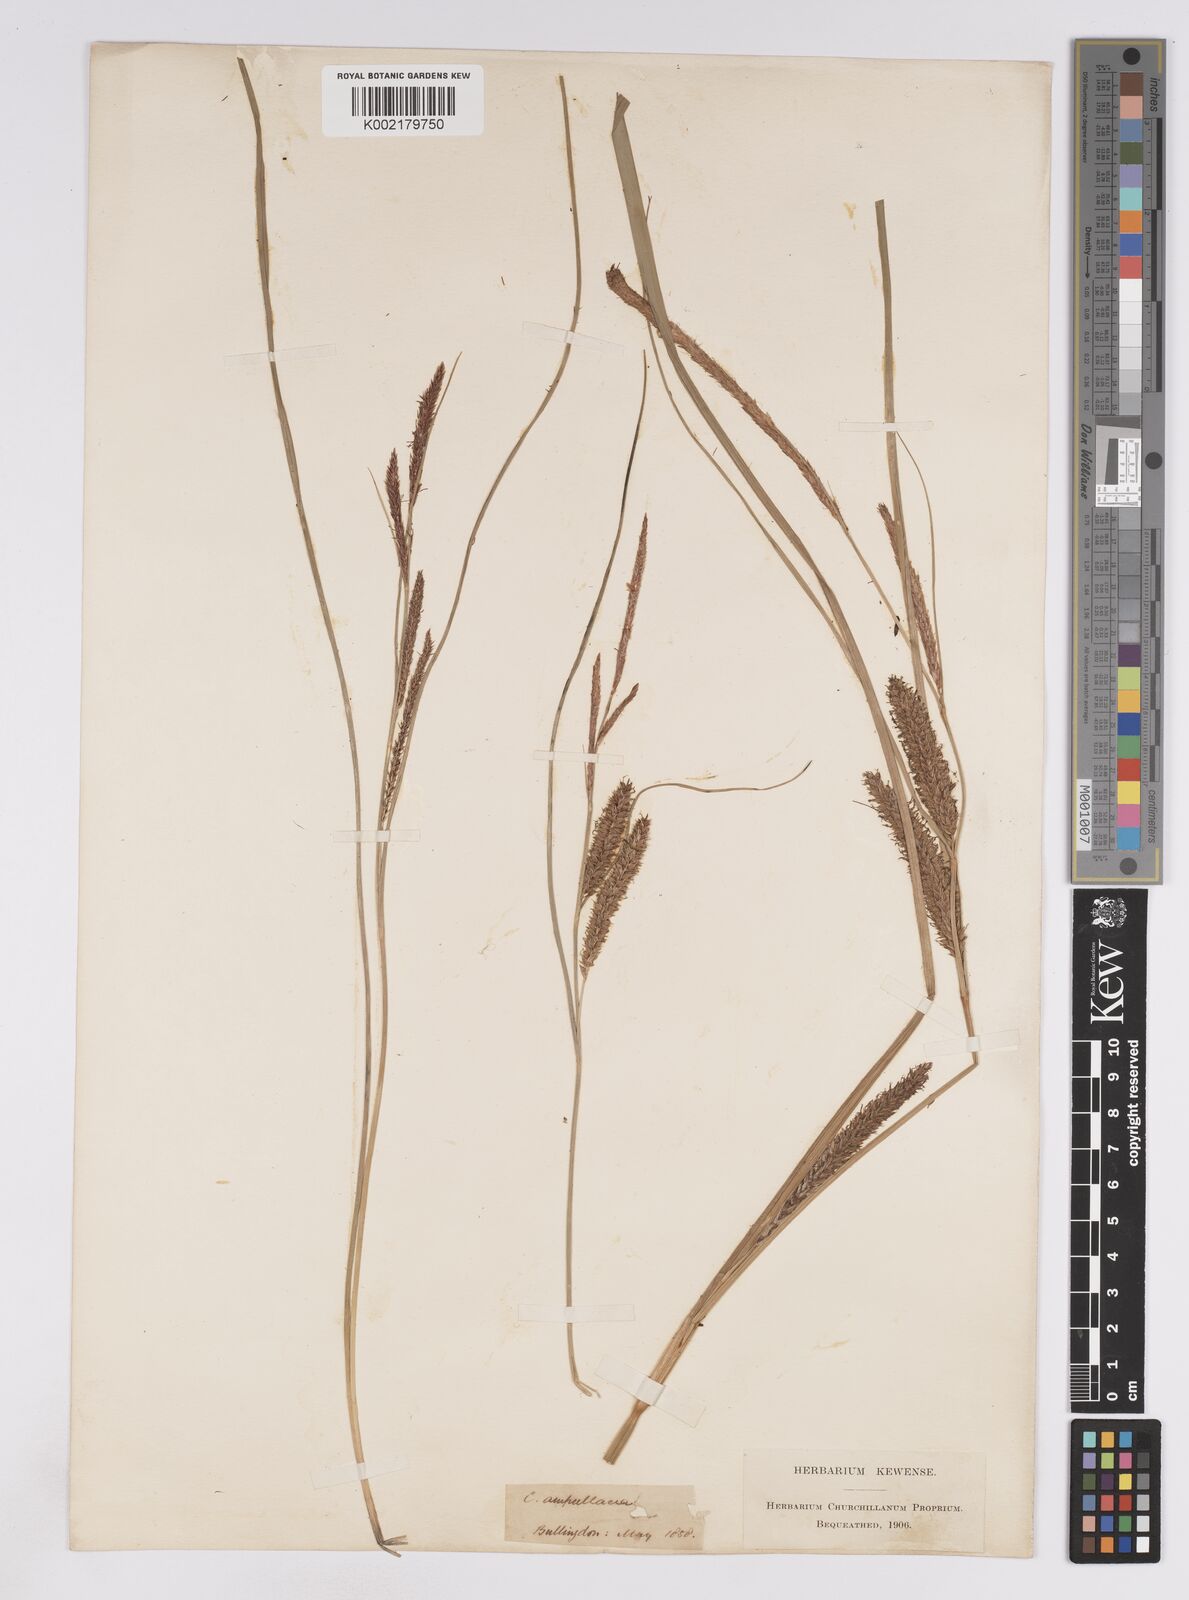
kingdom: Plantae
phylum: Tracheophyta
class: Liliopsida
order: Poales
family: Cyperaceae
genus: Carex
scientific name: Carex rostrata
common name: Bottle sedge
